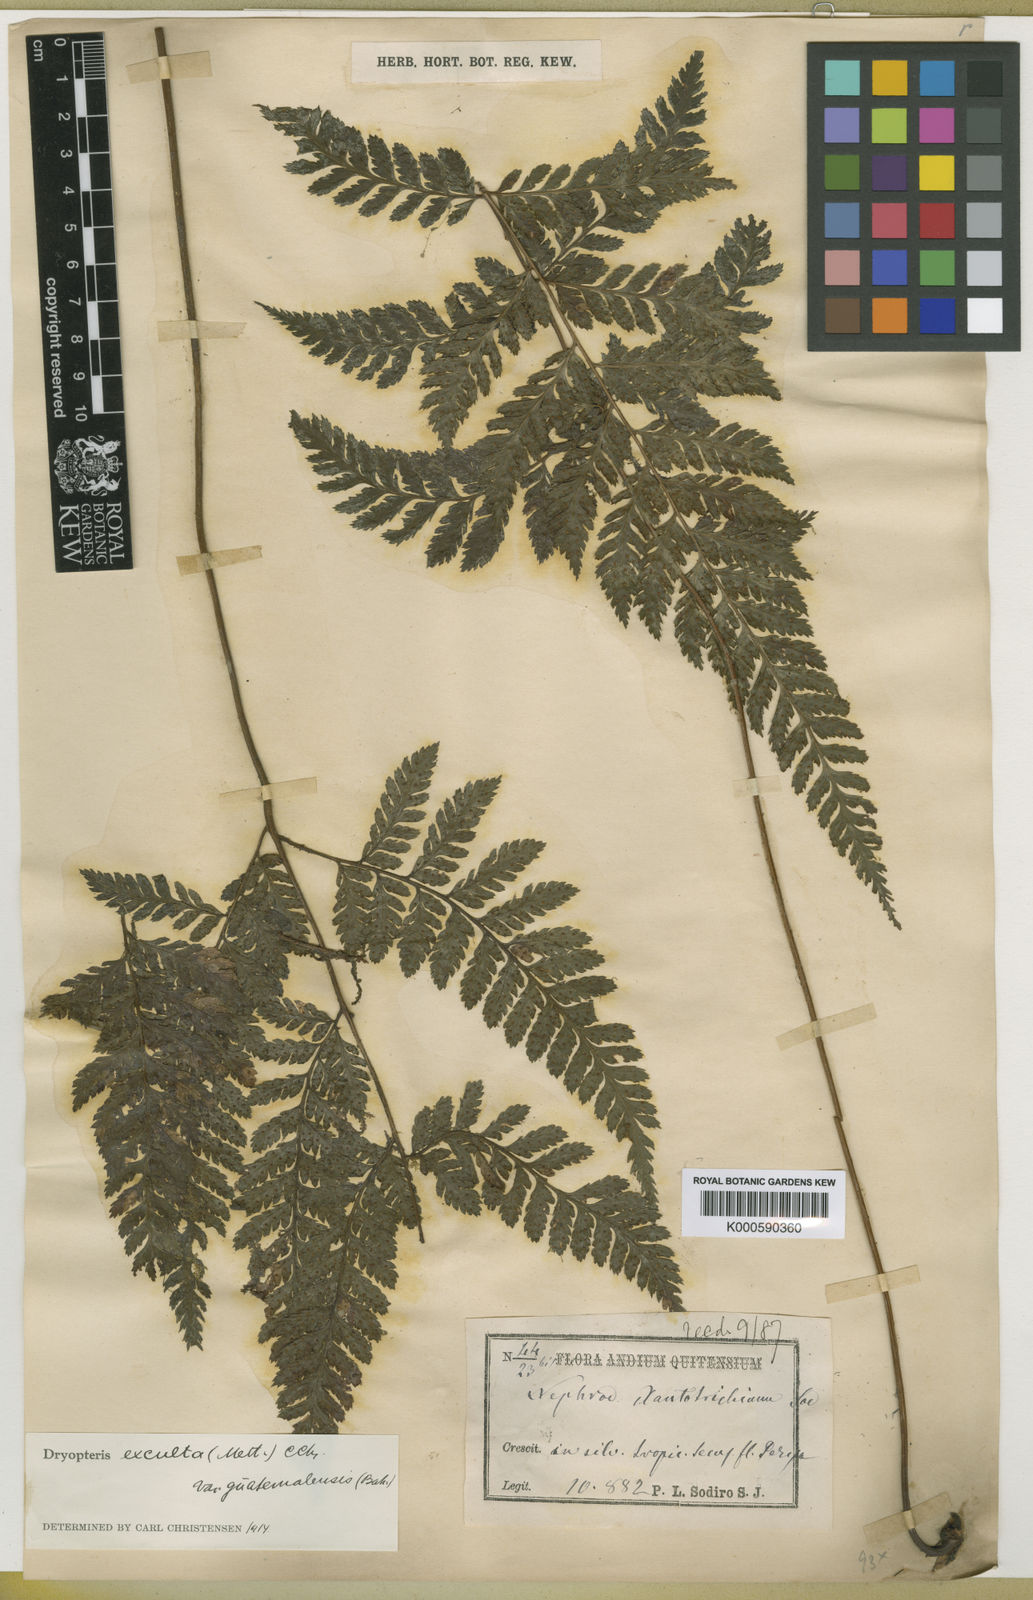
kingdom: Plantae
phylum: Tracheophyta
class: Polypodiopsida
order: Polypodiales
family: Dryopteridaceae
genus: Parapolystichum
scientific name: Parapolystichum excultum
